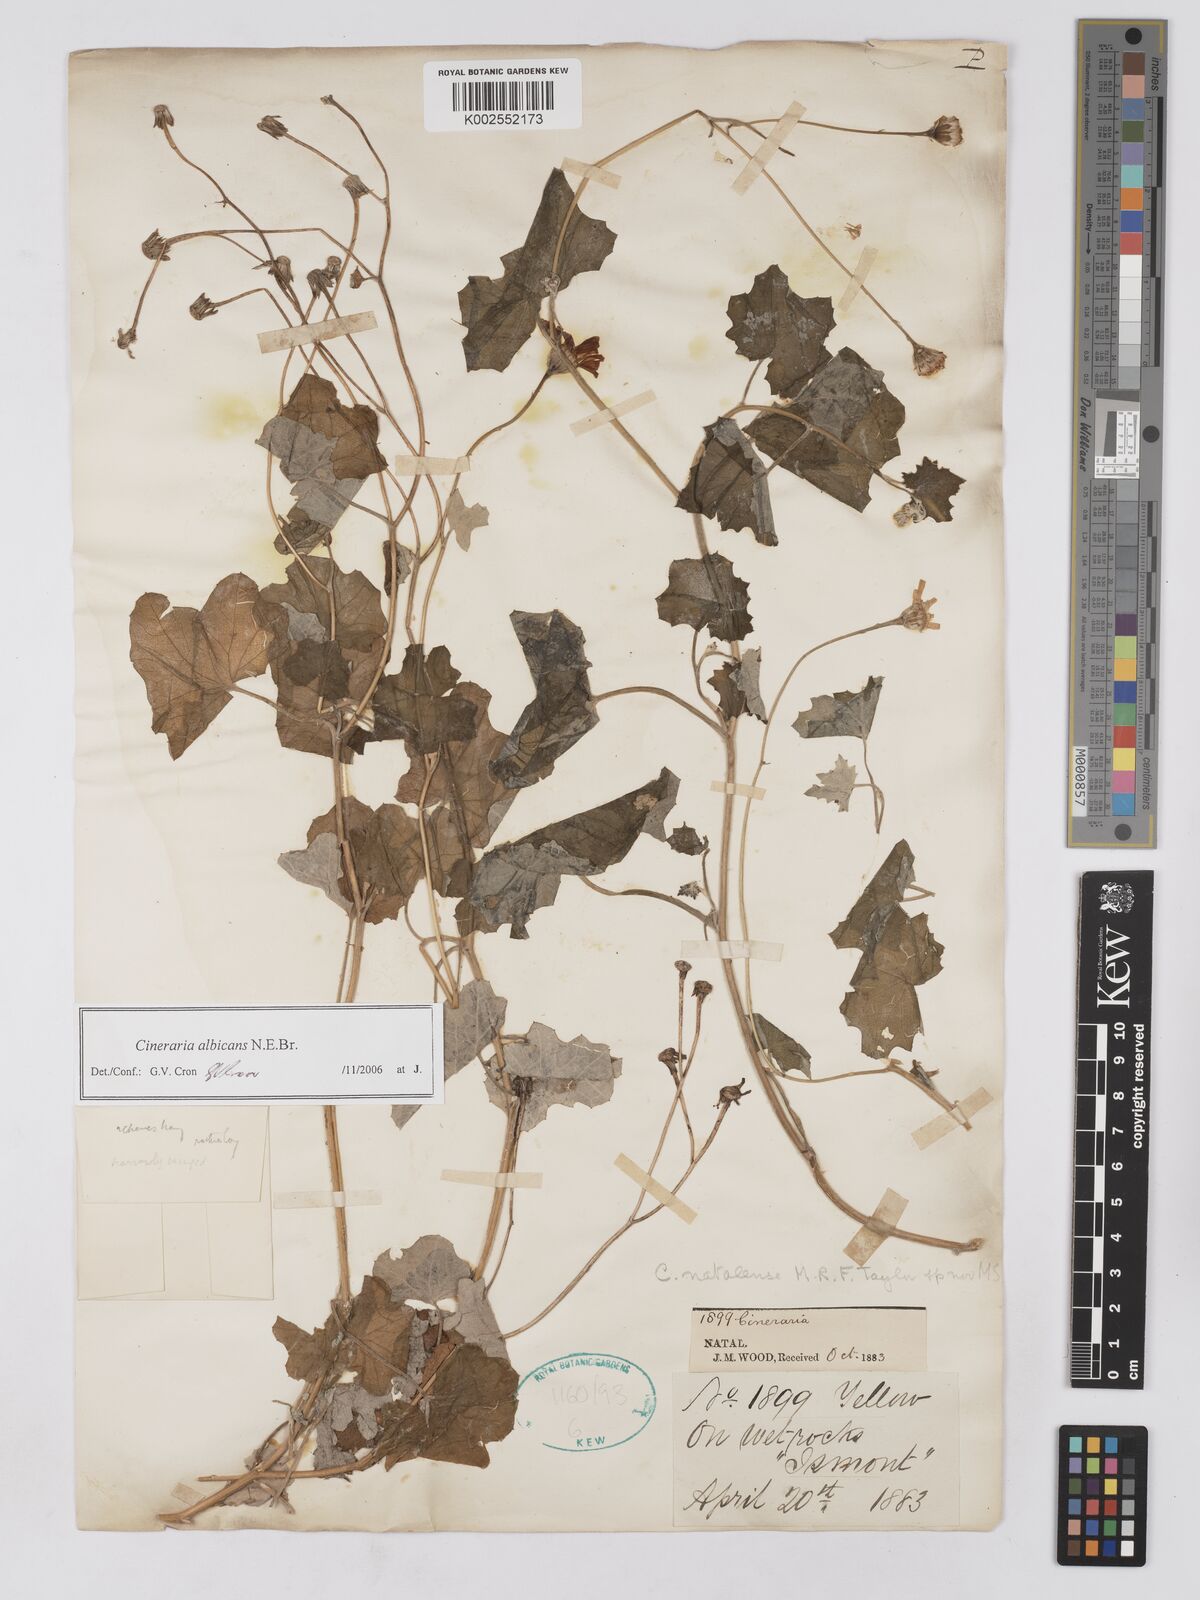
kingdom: Plantae
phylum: Tracheophyta
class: Magnoliopsida
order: Asterales
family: Asteraceae
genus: Cineraria
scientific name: Cineraria albicans
